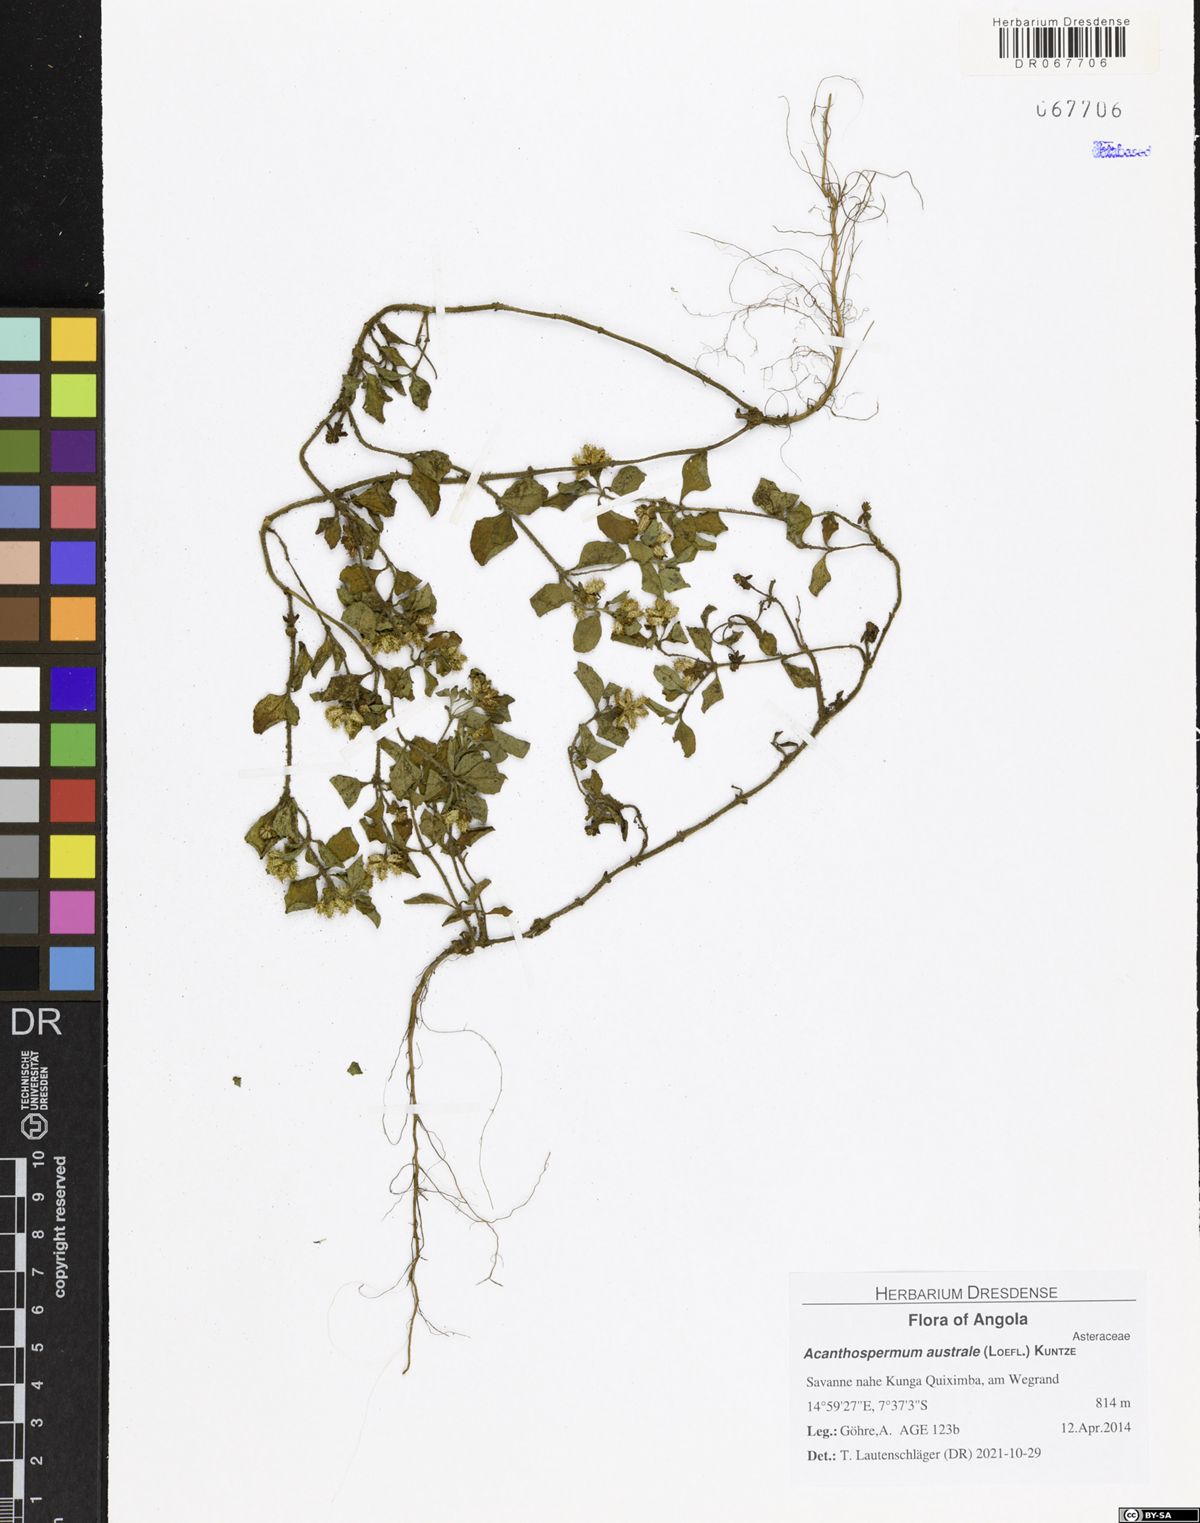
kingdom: Plantae
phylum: Tracheophyta
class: Magnoliopsida
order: Asterales
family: Asteraceae
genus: Acanthospermum
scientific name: Acanthospermum australe
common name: Paraguayan starbur
